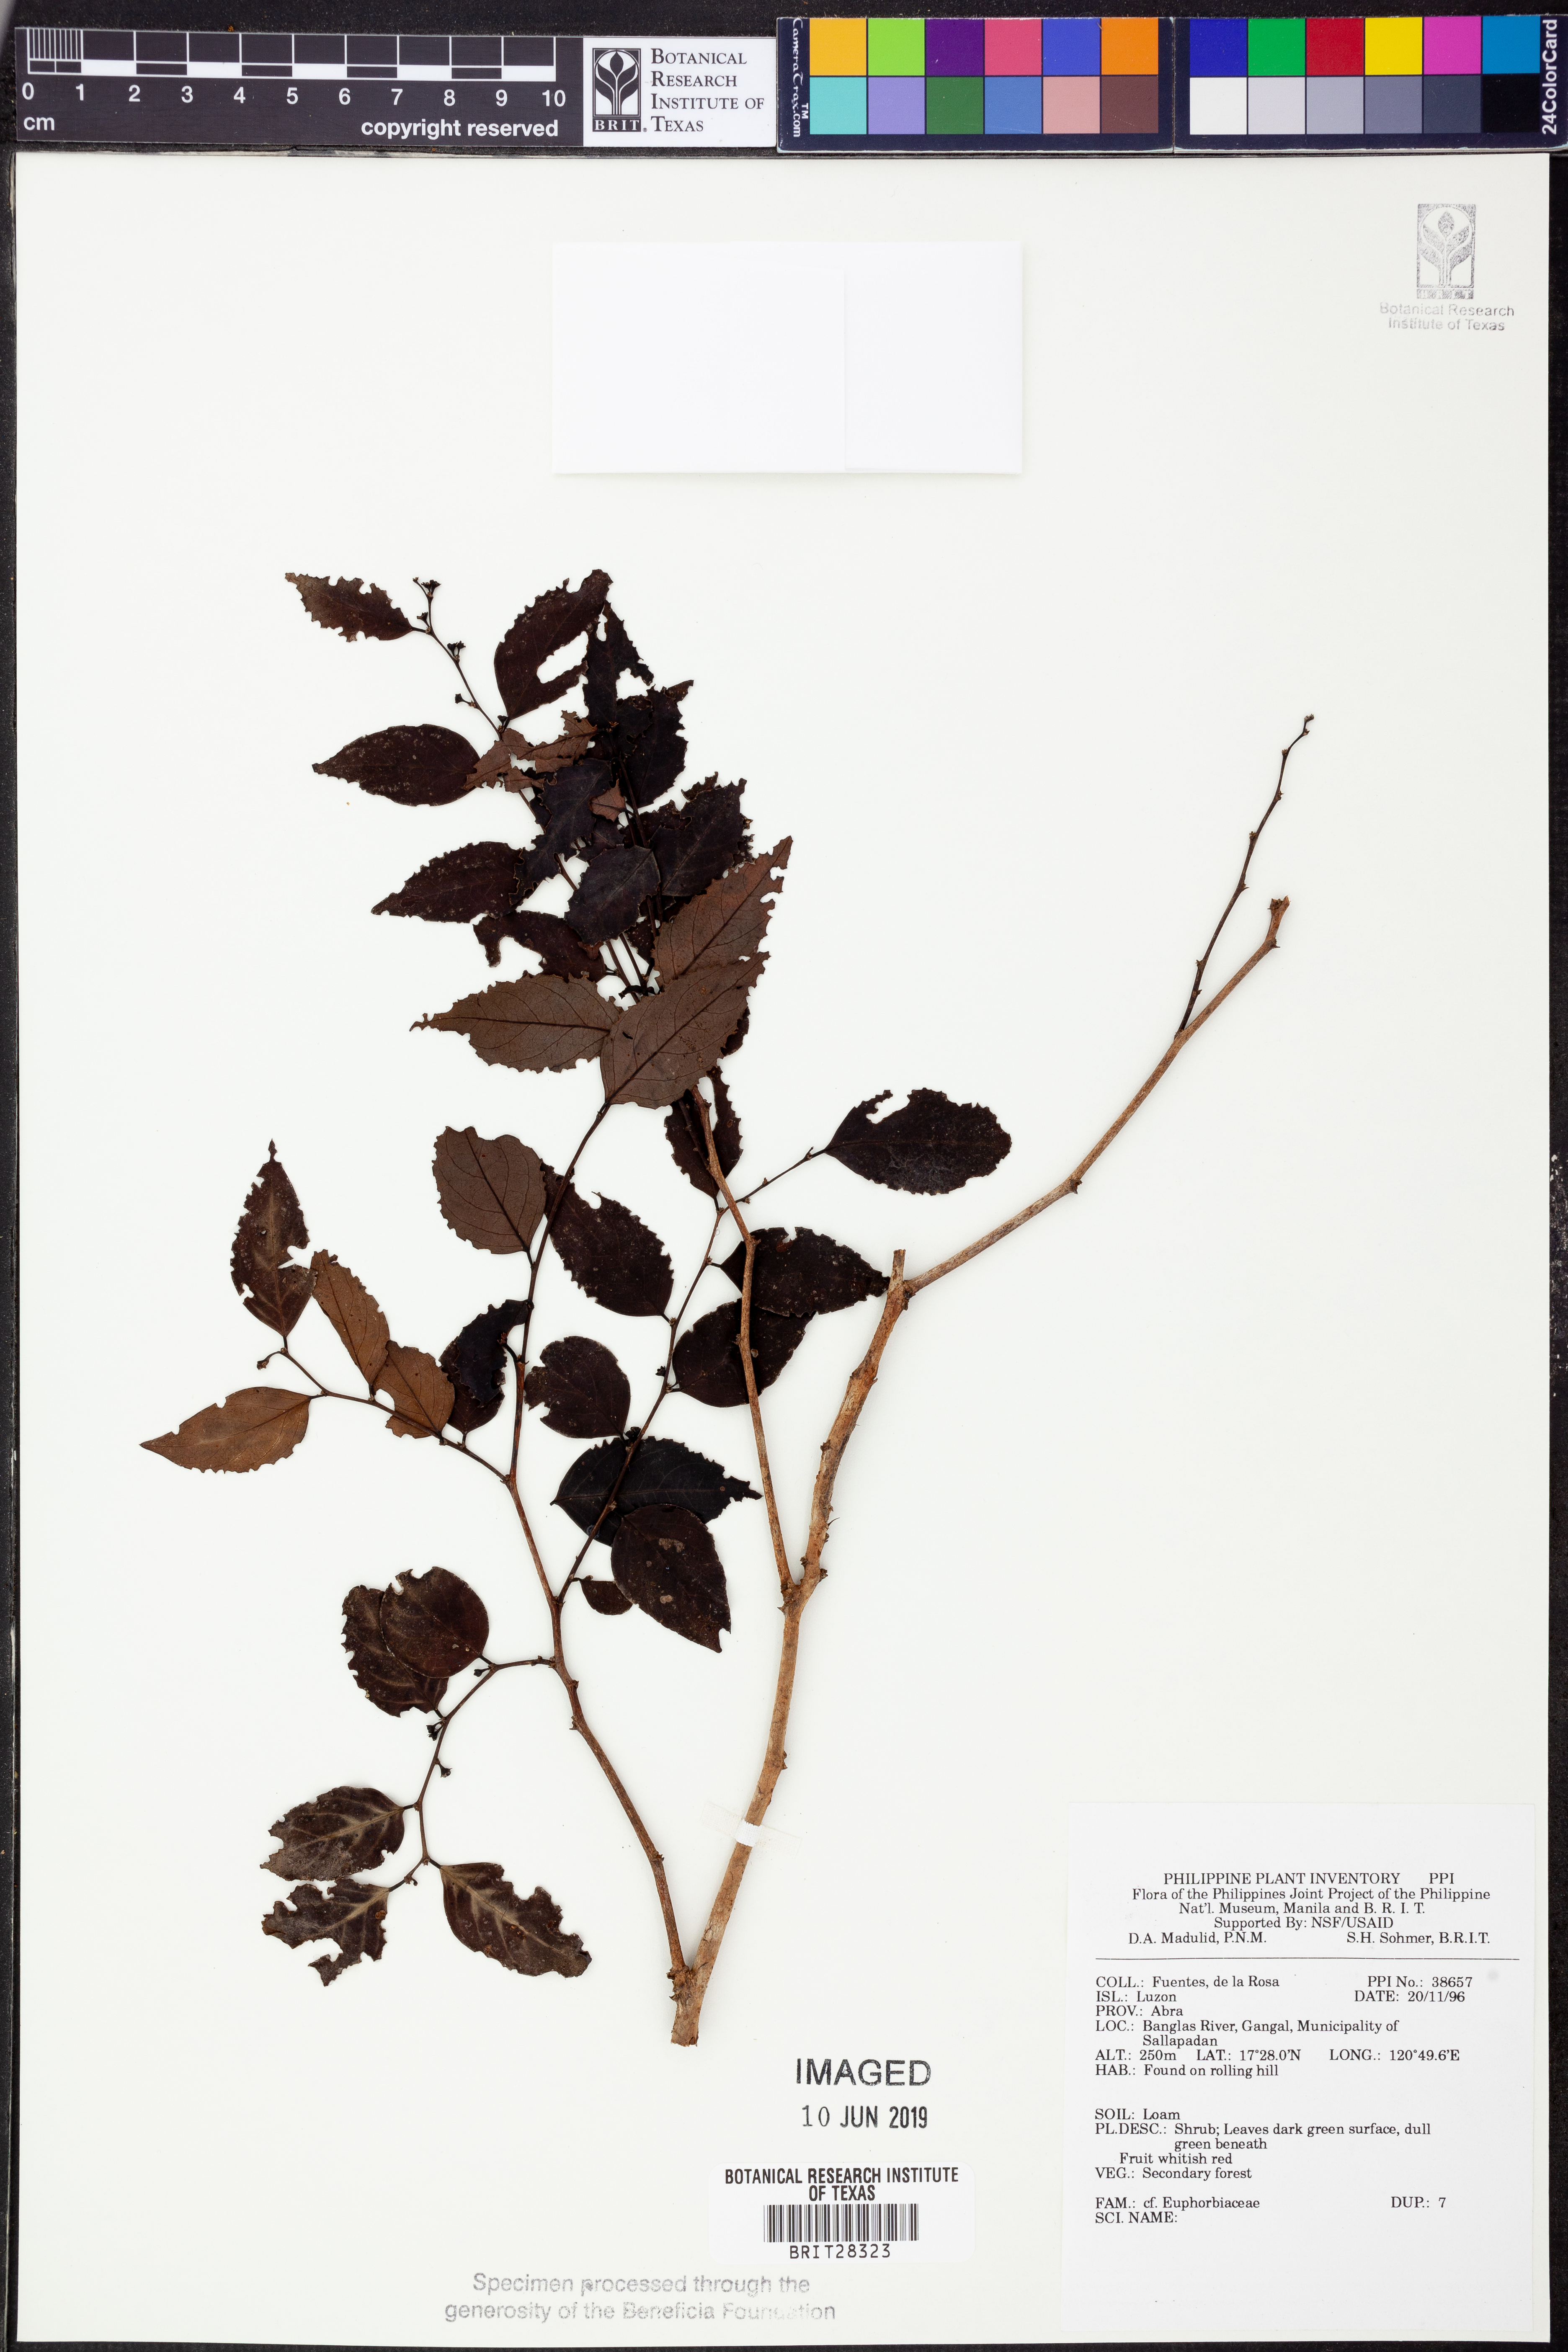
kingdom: Plantae
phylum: Tracheophyta
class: Magnoliopsida
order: Malpighiales
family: Euphorbiaceae
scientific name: Euphorbiaceae
